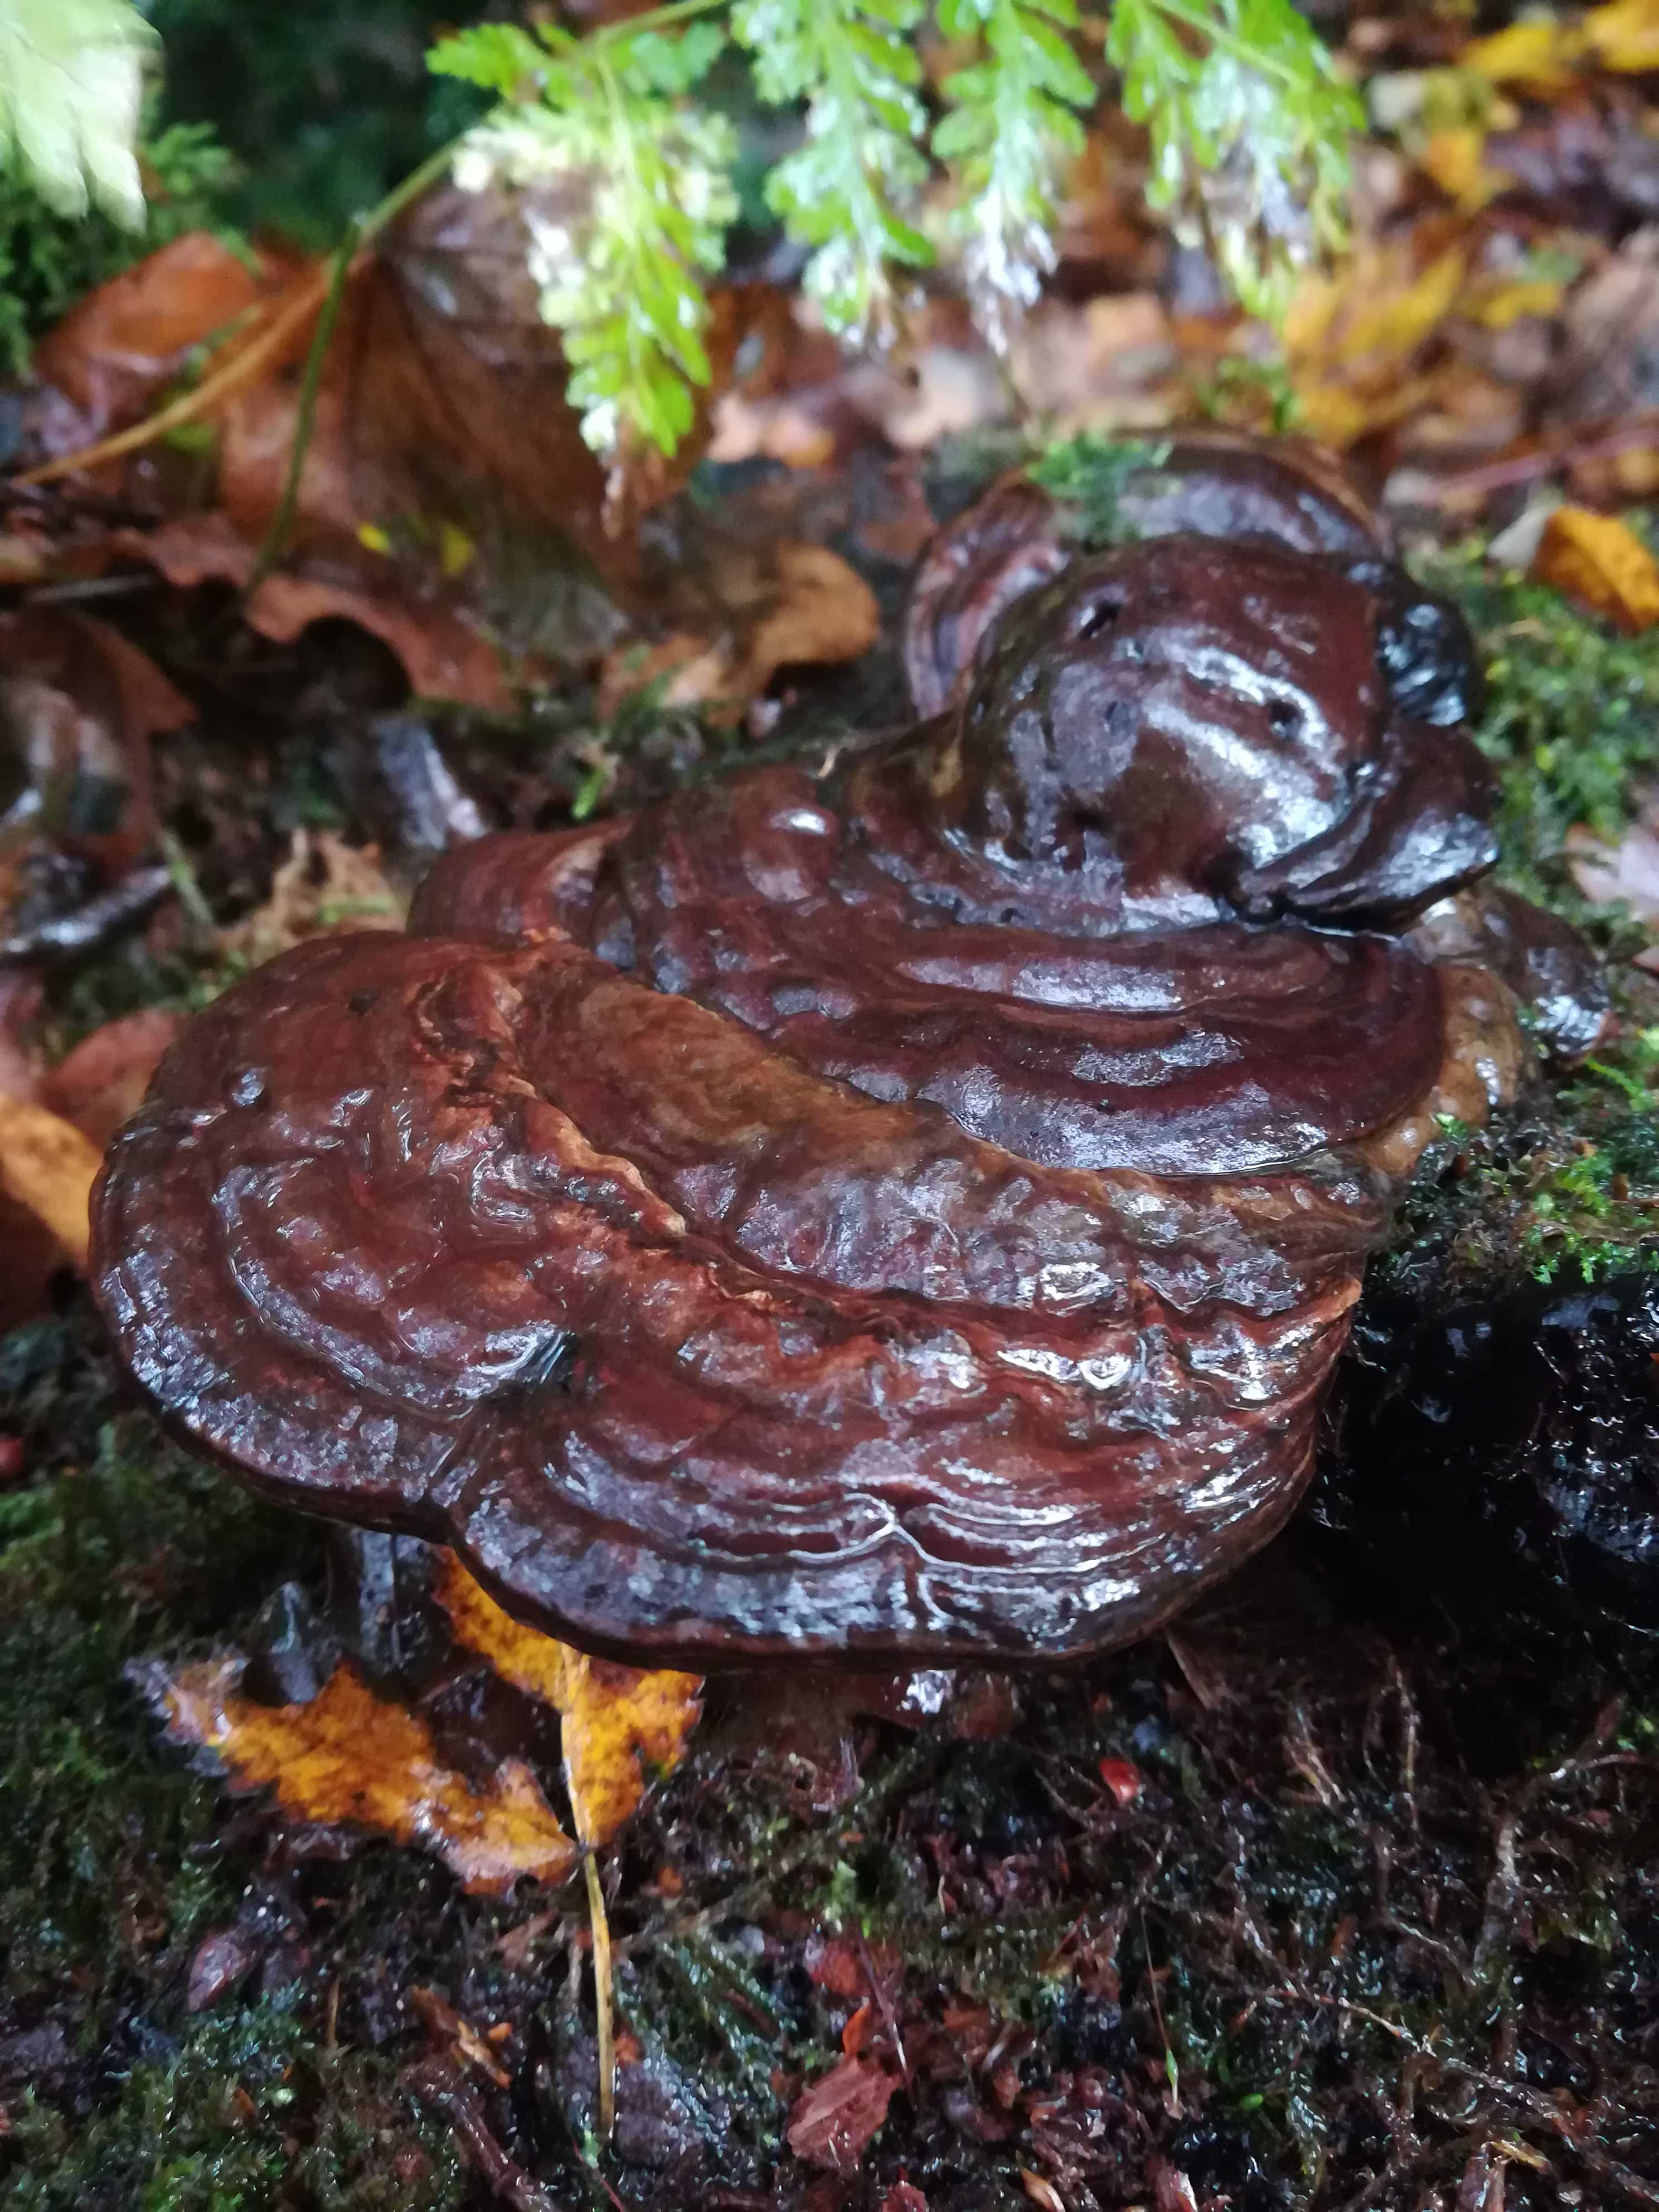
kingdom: Fungi
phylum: Basidiomycota
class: Agaricomycetes
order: Polyporales
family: Polyporaceae
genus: Ganoderma
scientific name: Ganoderma applanatum
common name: flad lakporesvamp
